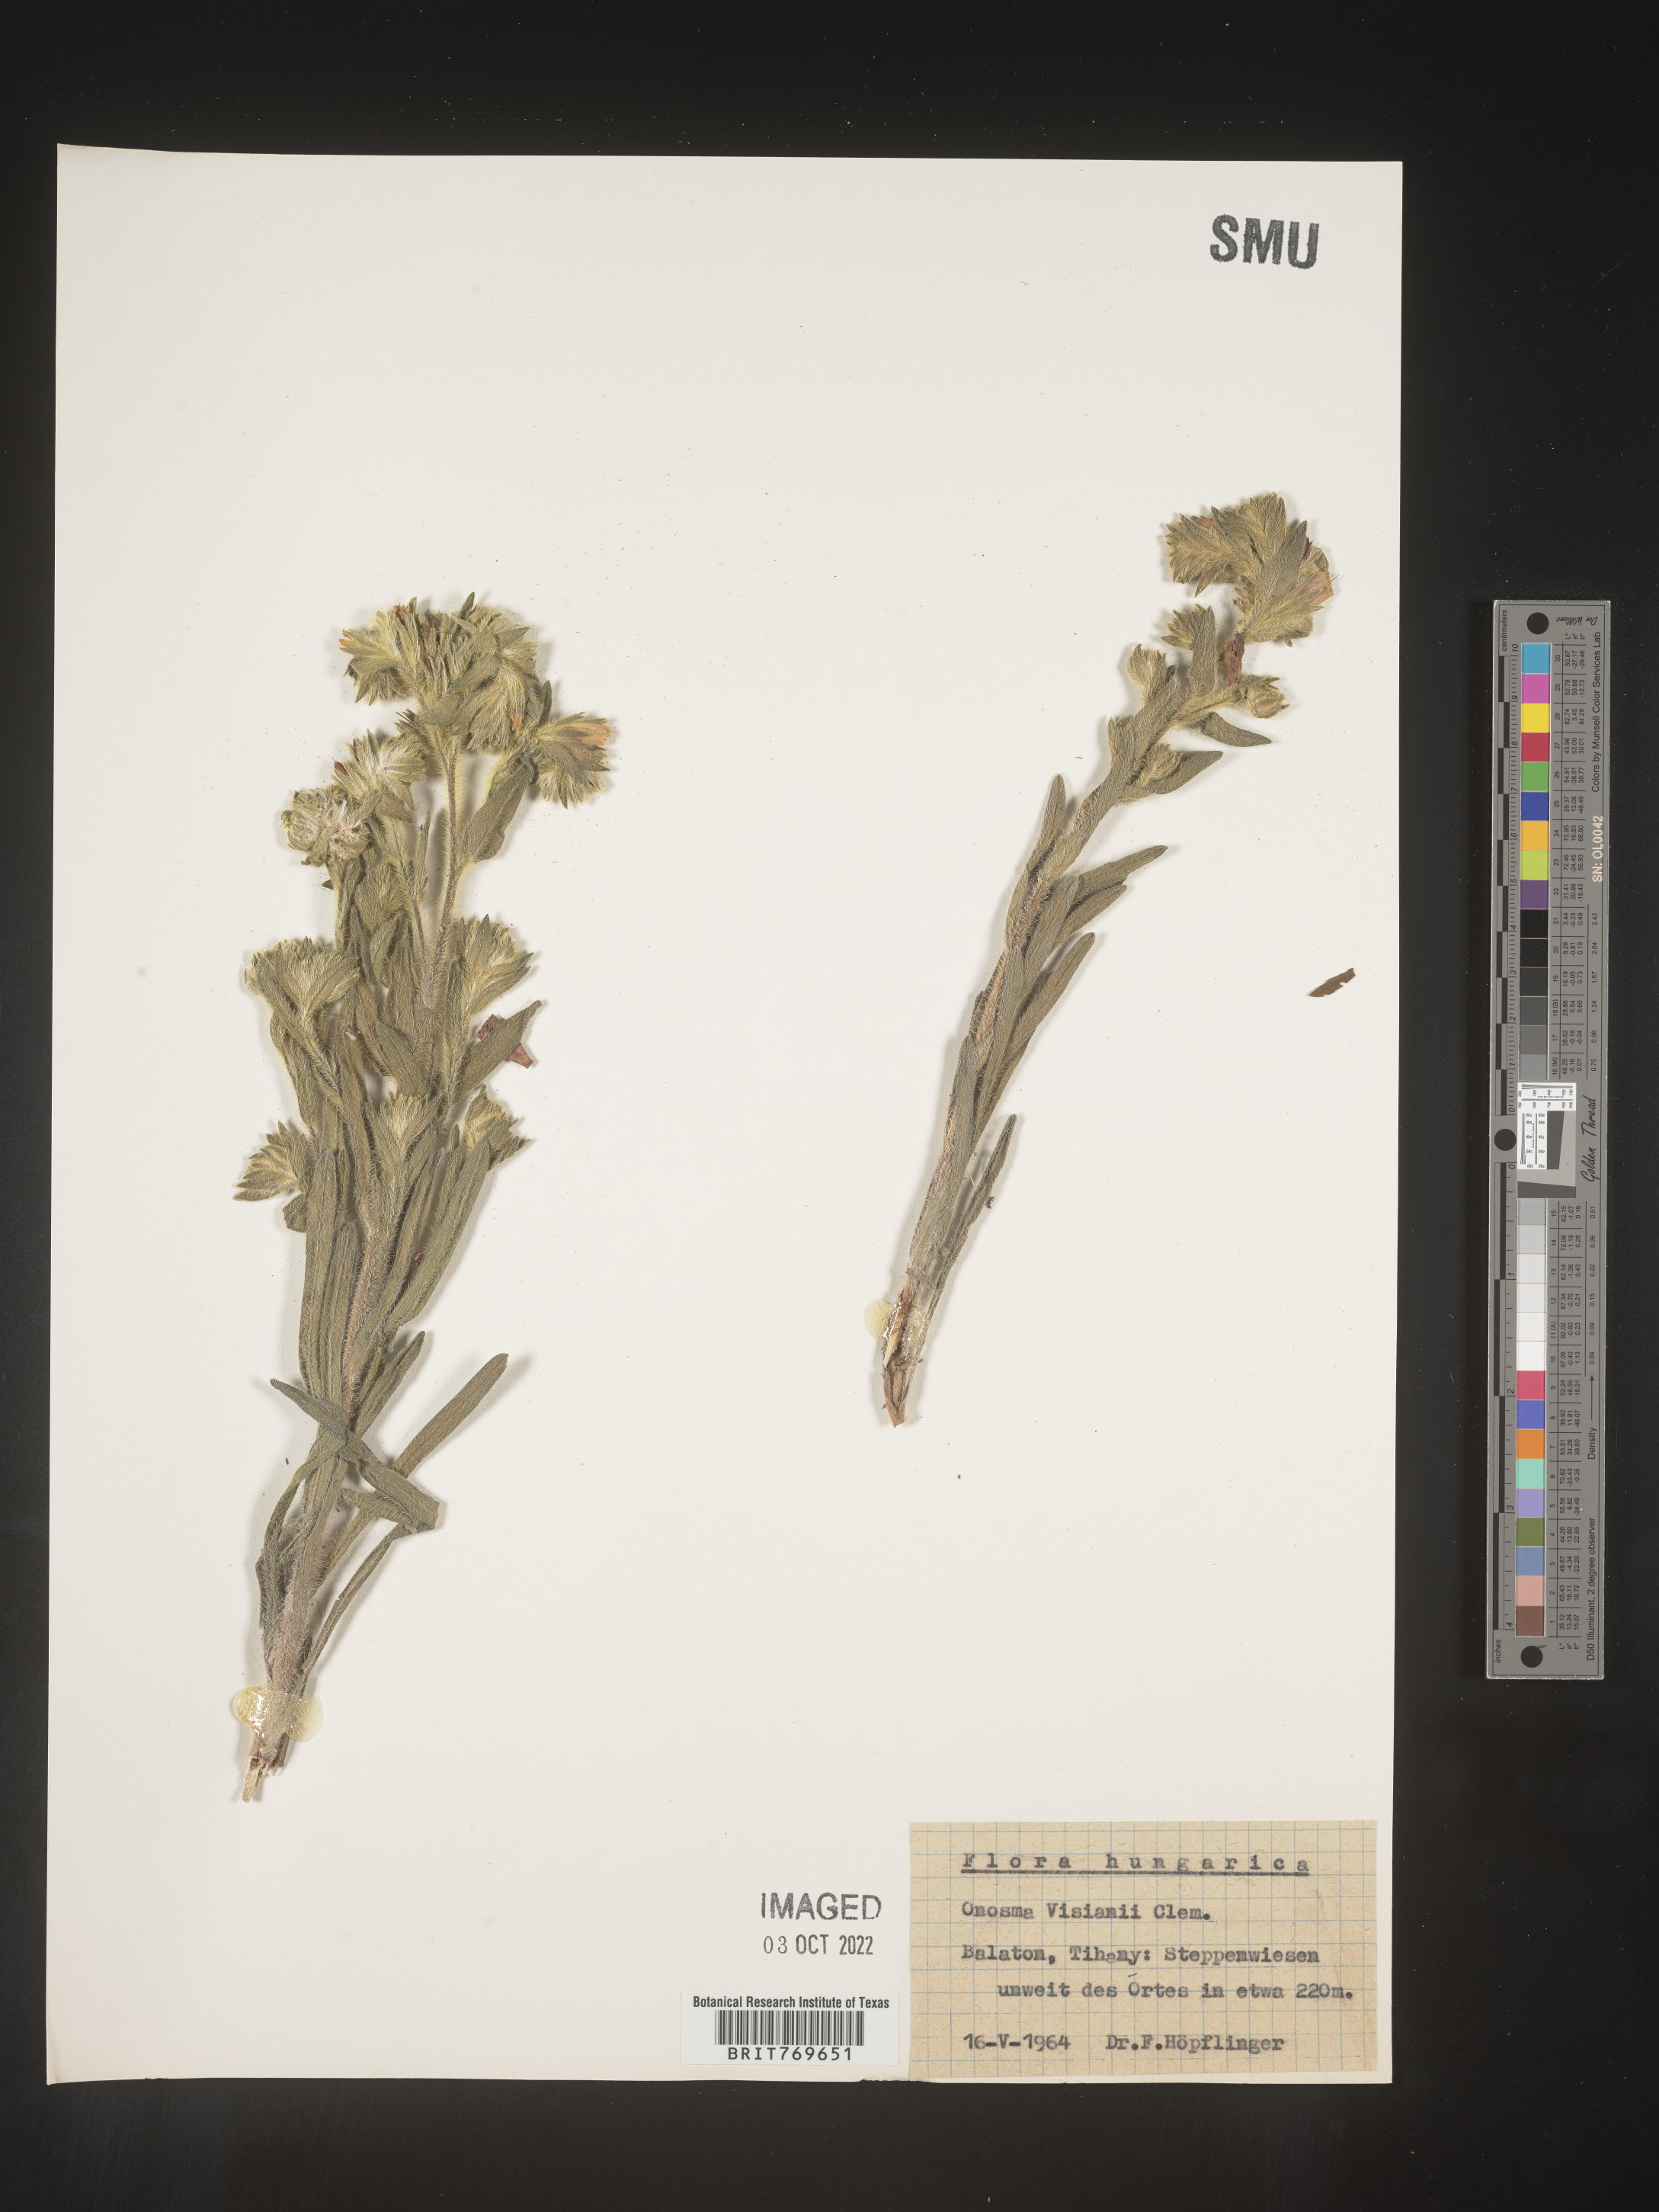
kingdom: Plantae
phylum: Tracheophyta
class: Magnoliopsida
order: Boraginales
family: Boraginaceae
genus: Onosma
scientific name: Onosma
